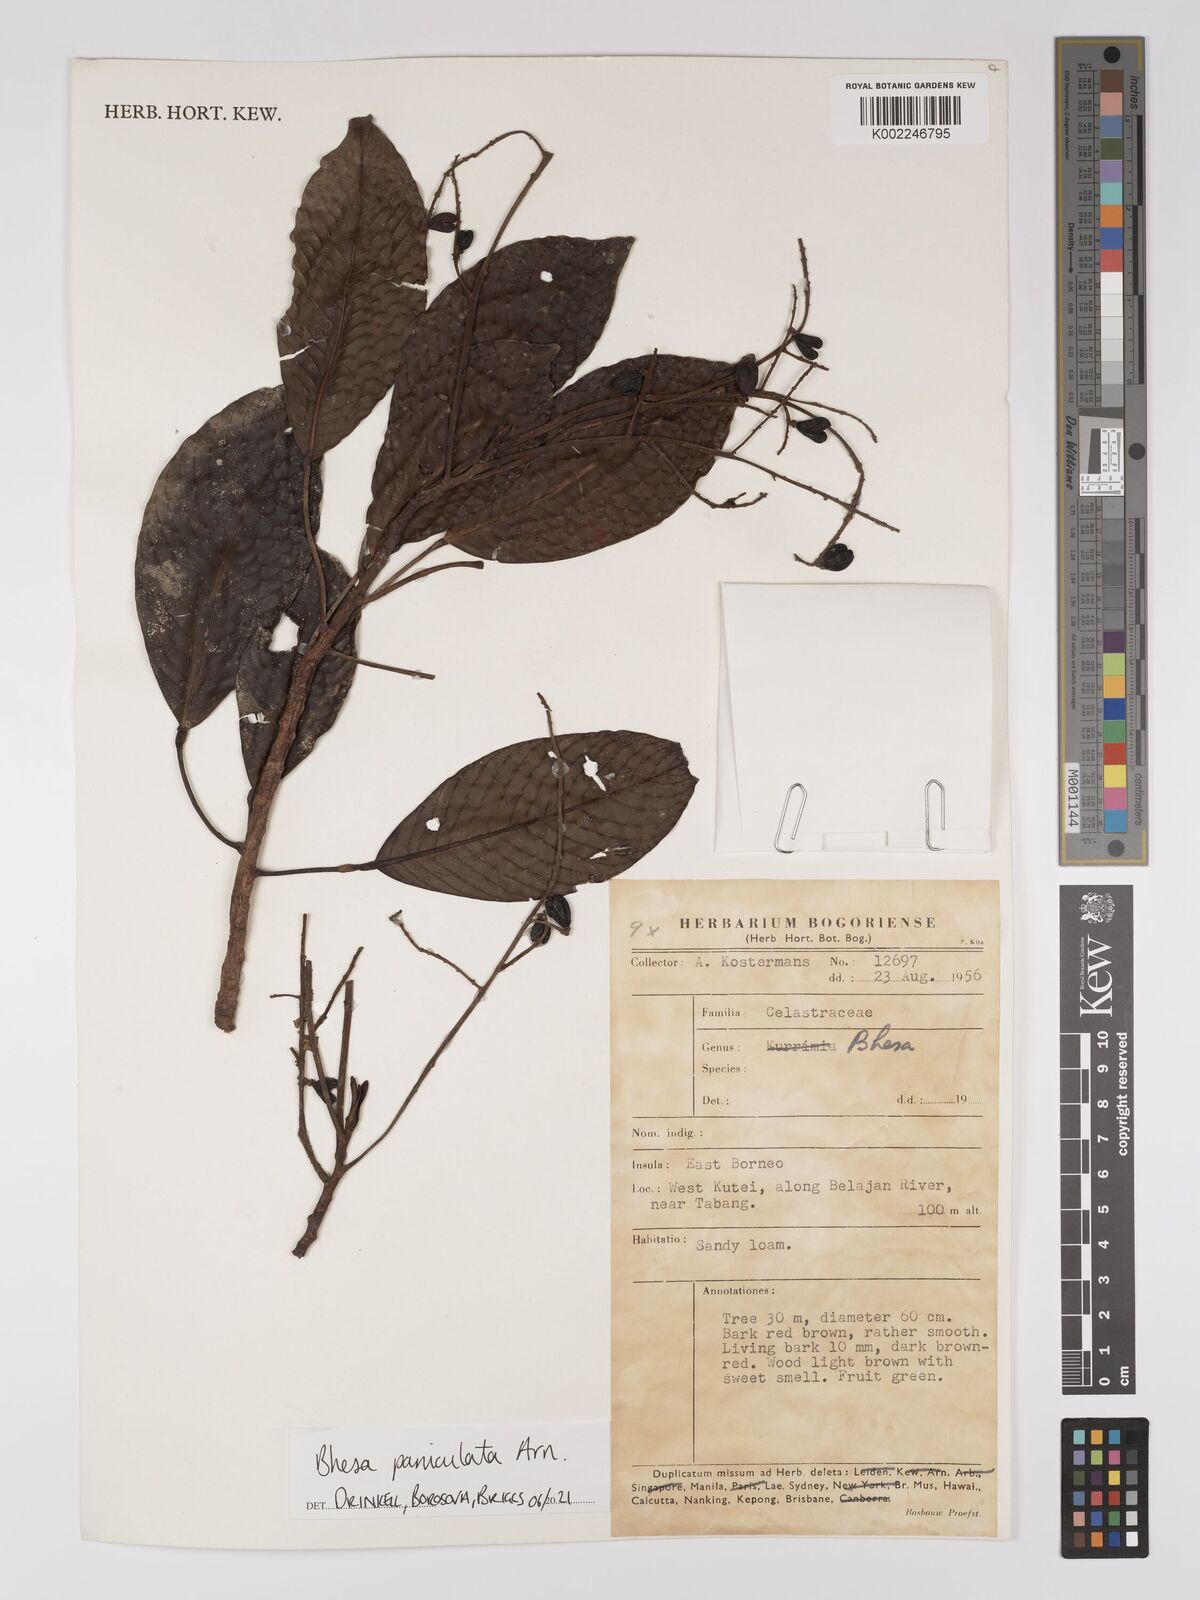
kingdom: Plantae
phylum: Tracheophyta
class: Magnoliopsida
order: Malpighiales
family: Centroplacaceae
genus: Bhesa
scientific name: Bhesa paniculata
